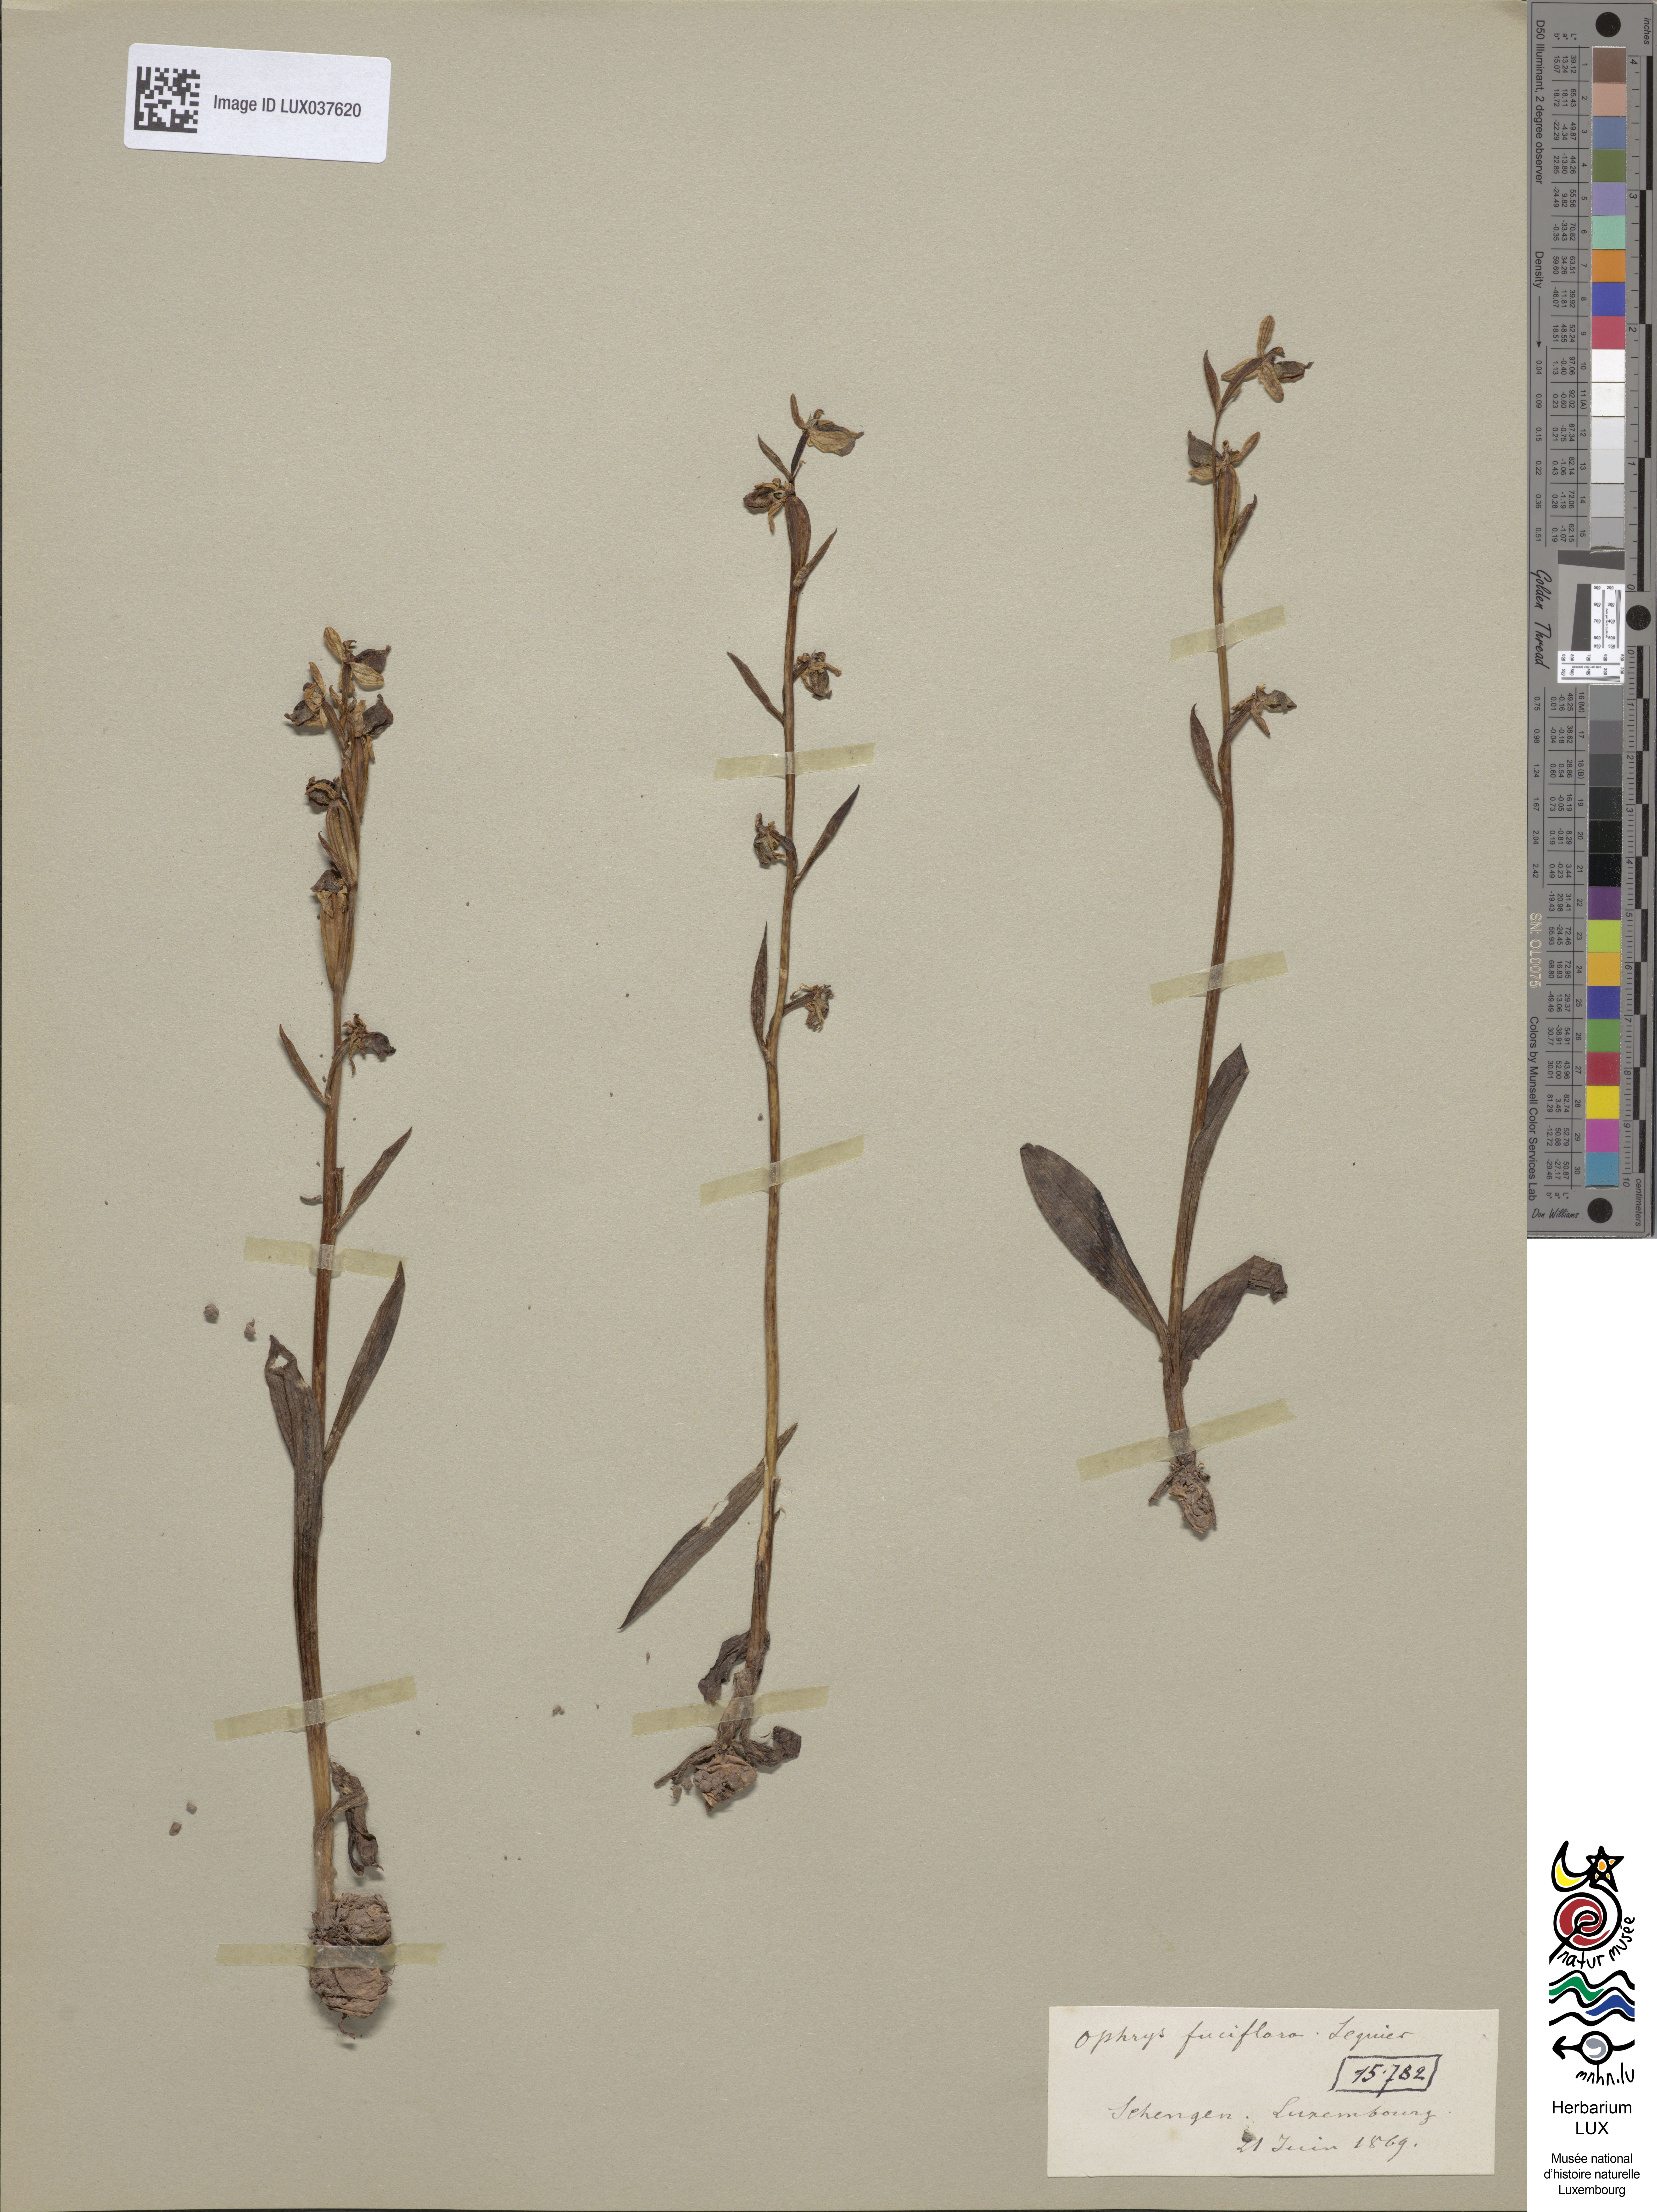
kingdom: Plantae
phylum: Tracheophyta
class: Liliopsida
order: Asparagales
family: Orchidaceae
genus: Ophrys
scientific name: Ophrys holosericea
